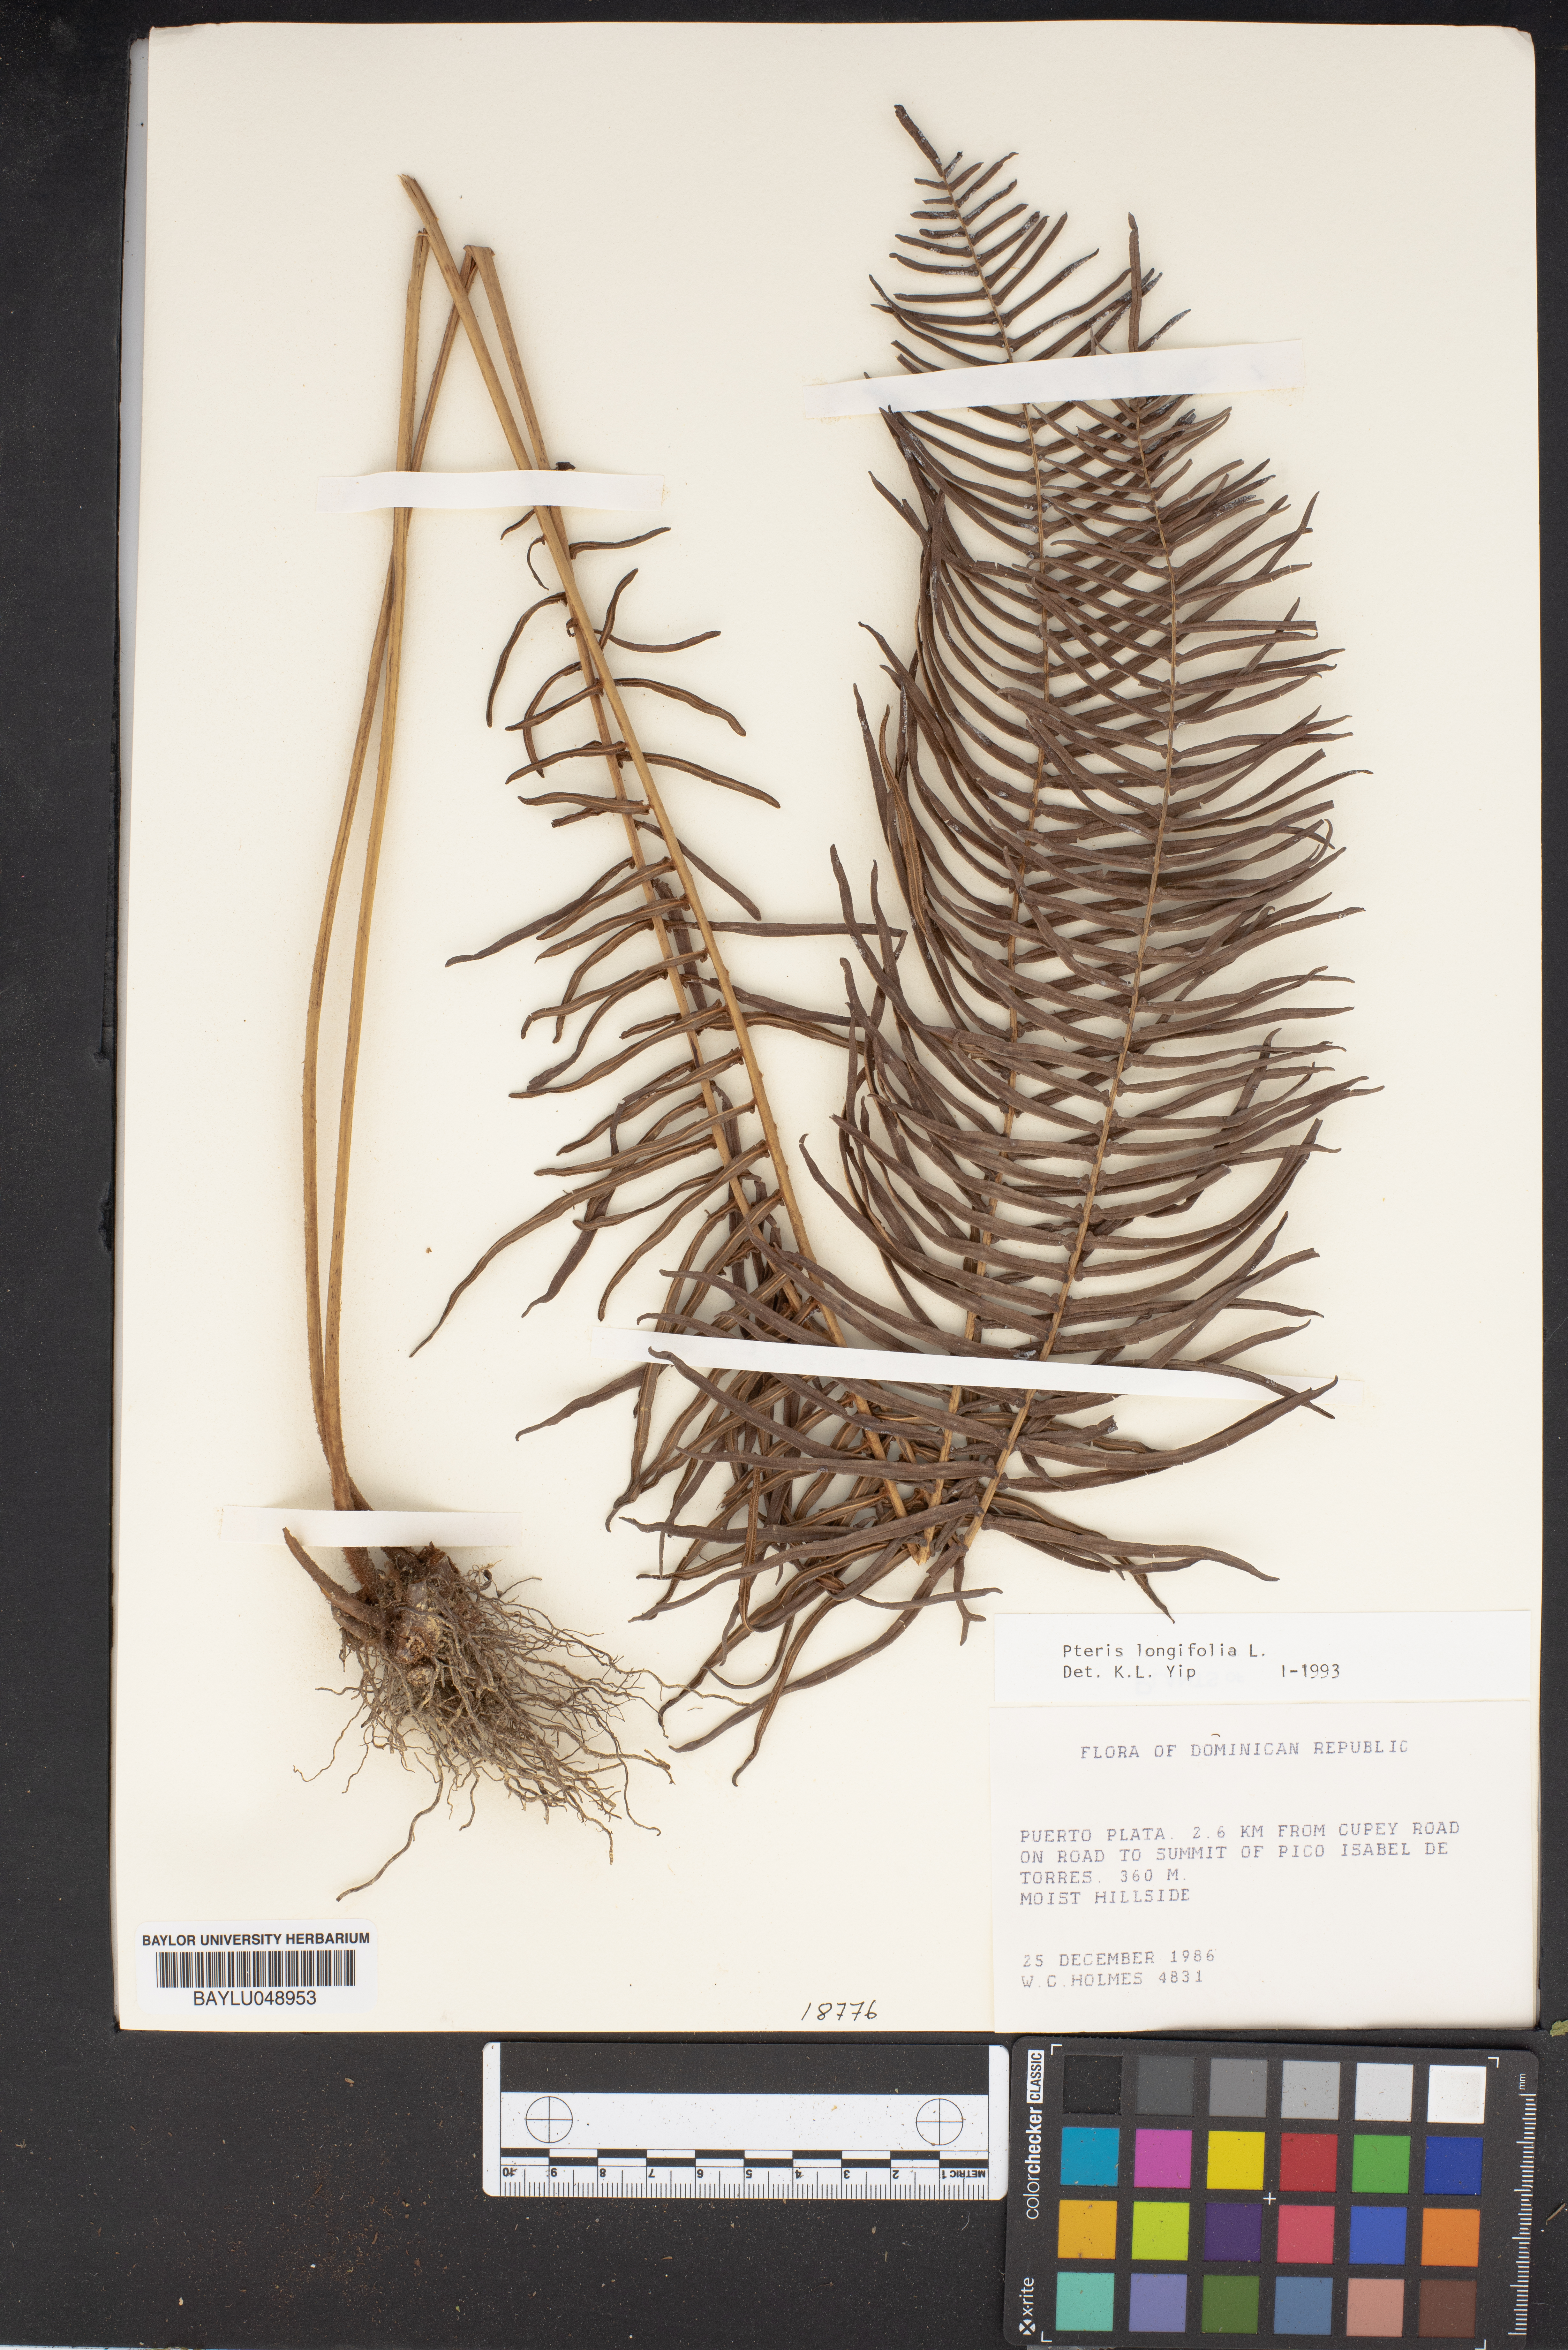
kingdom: Plantae
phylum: Tracheophyta
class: Polypodiopsida
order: Polypodiales
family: Pteridaceae
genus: Pteris
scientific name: Pteris longifolia
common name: Longleaf brake
